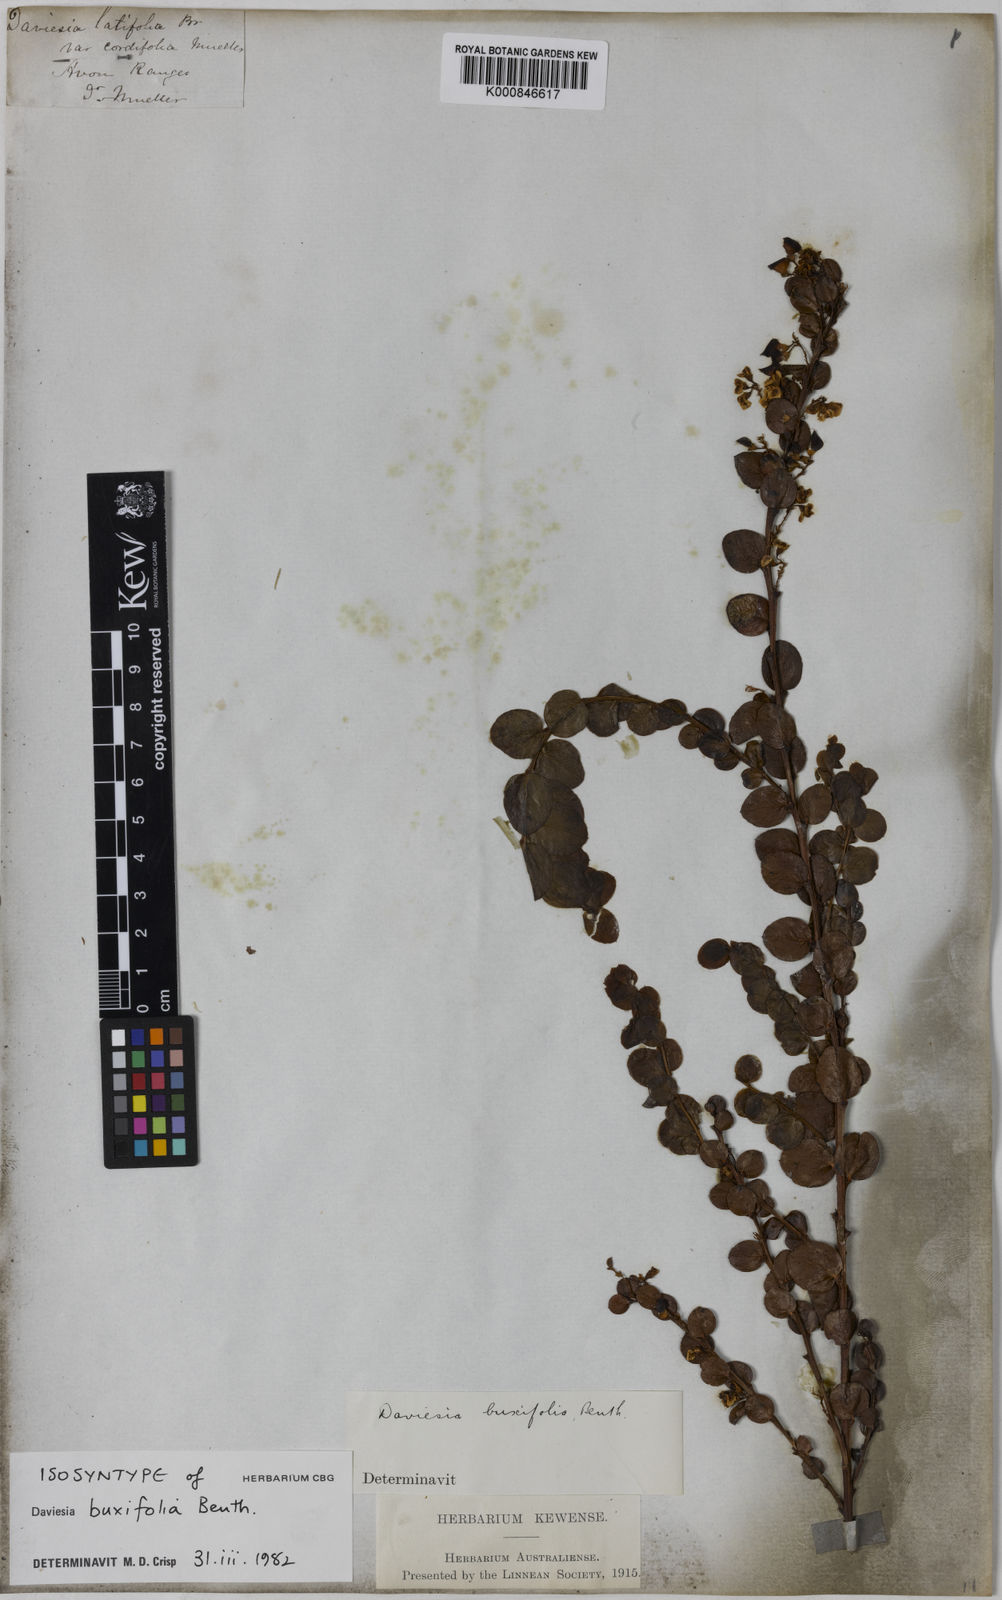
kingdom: Plantae
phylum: Tracheophyta
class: Magnoliopsida
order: Fabales
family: Fabaceae
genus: Daviesia
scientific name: Daviesia mimosoides
